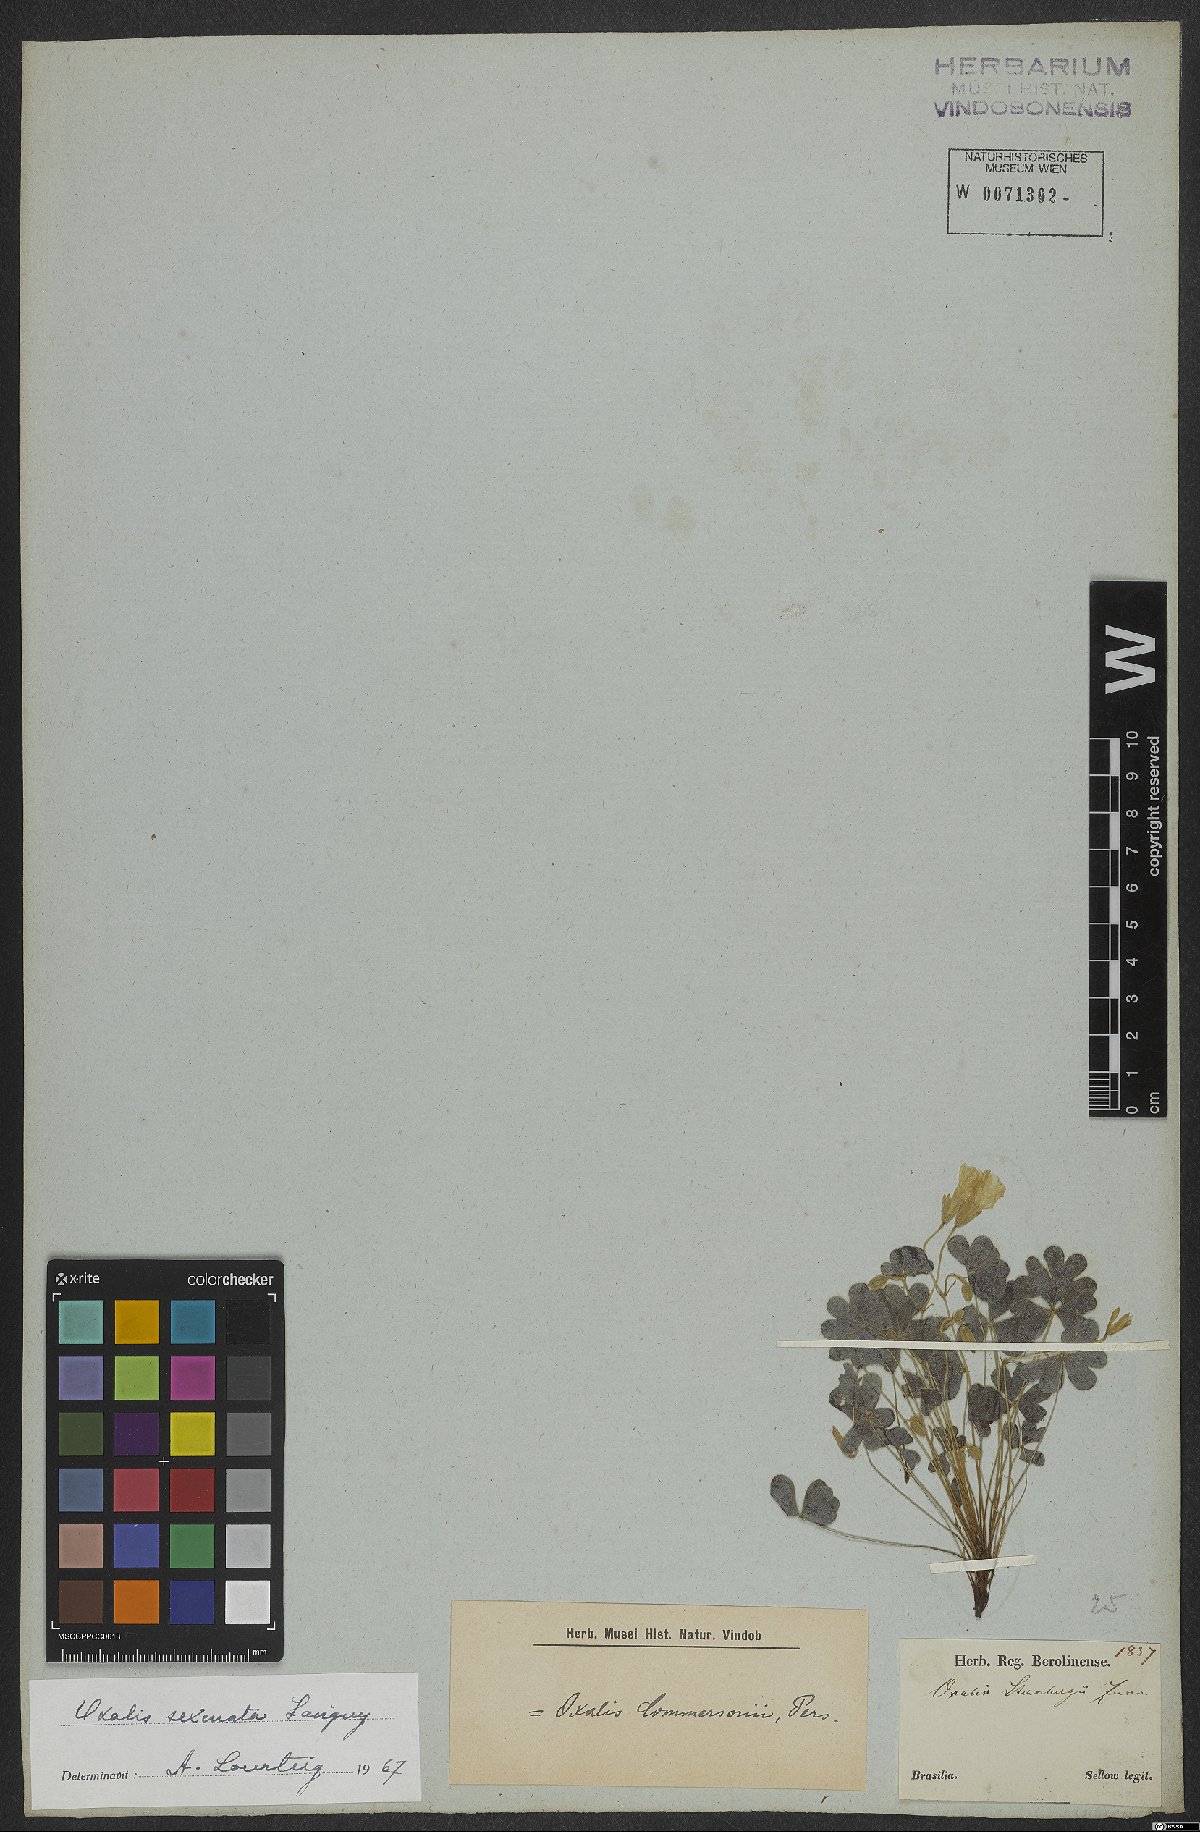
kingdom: Plantae
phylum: Tracheophyta
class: Magnoliopsida
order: Oxalidales
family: Oxalidaceae
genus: Oxalis
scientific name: Oxalis conorrhiza
